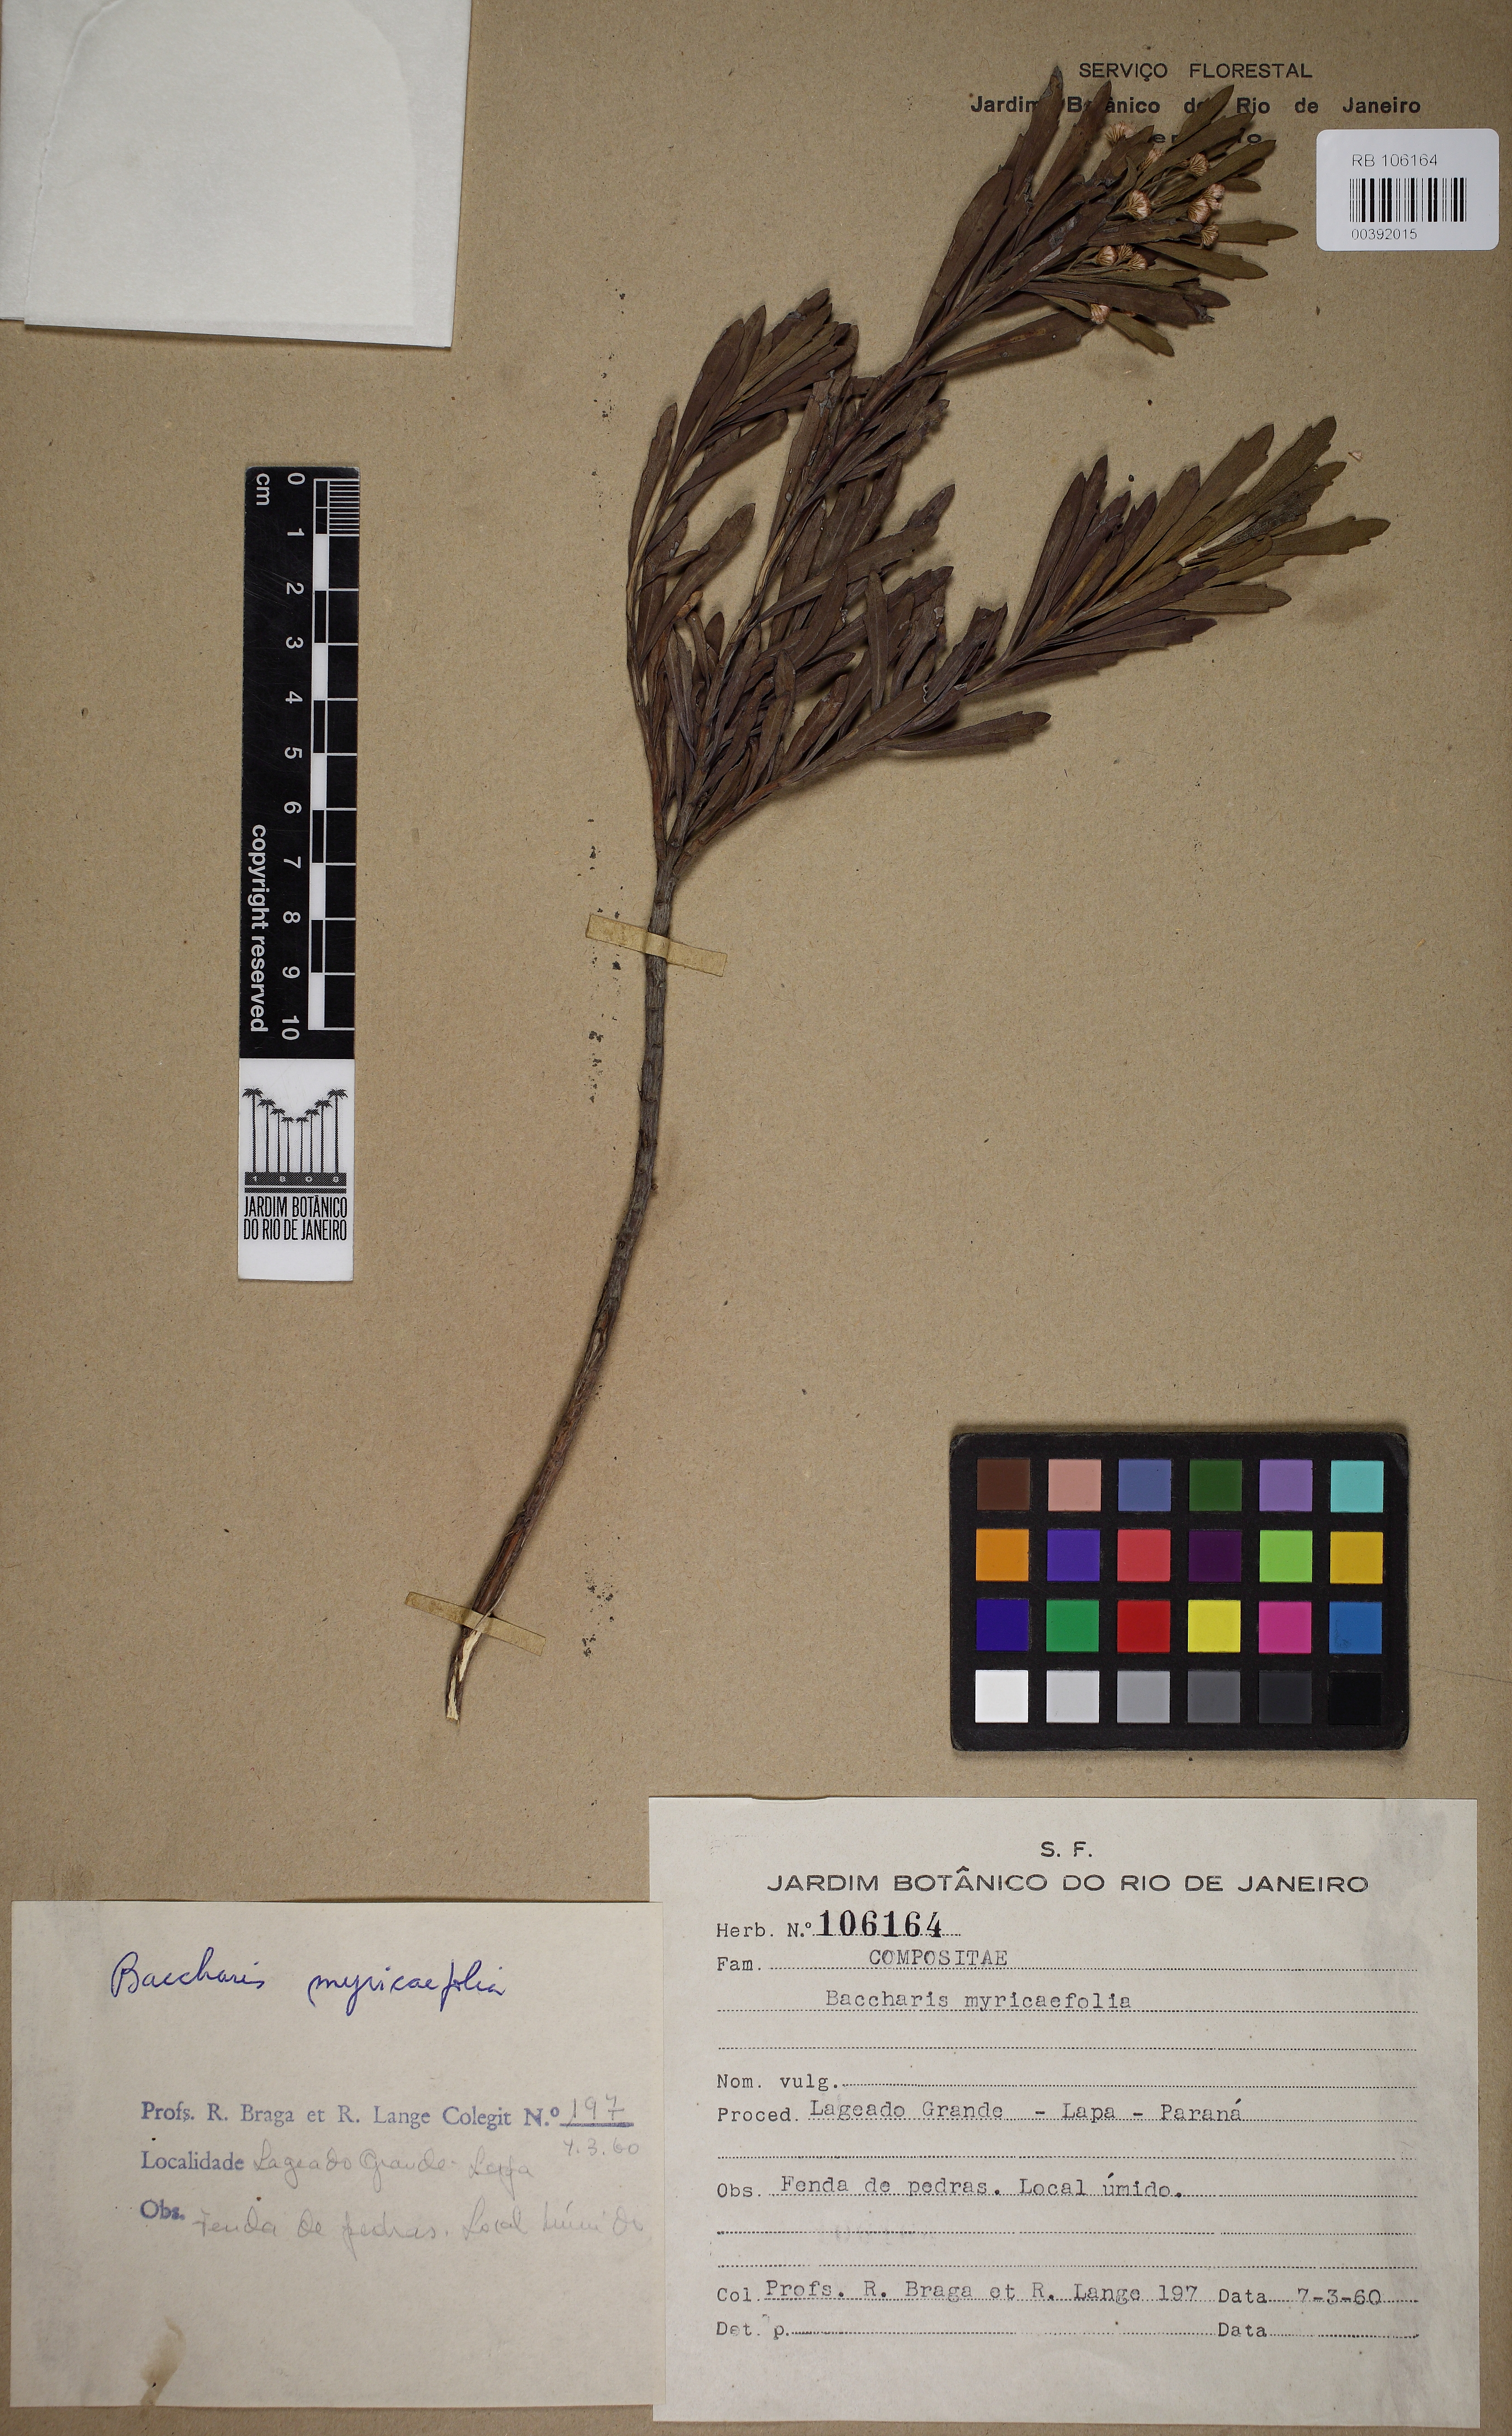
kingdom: Plantae
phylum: Tracheophyta
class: Magnoliopsida
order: Asterales
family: Asteraceae
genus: Baccharis
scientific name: Baccharis myricifolia
